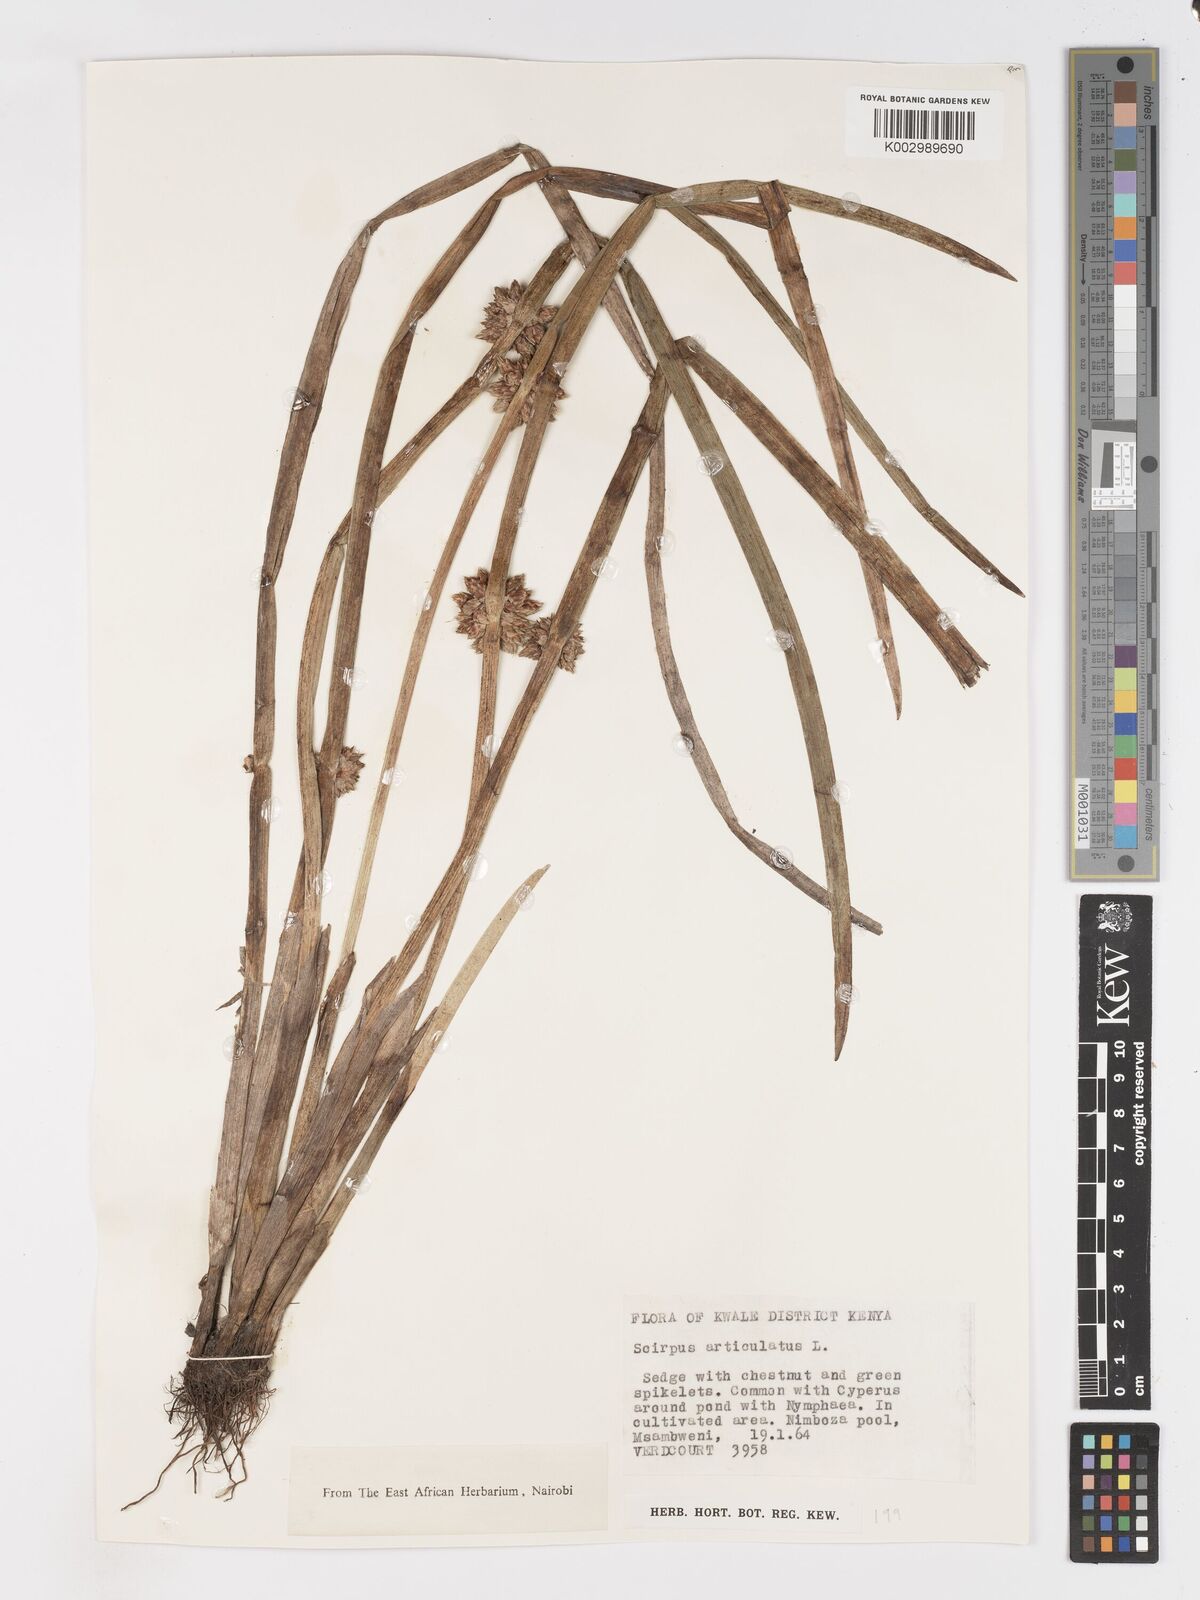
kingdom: Plantae
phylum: Tracheophyta
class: Liliopsida
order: Poales
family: Cyperaceae
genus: Schoenoplectiella
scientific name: Schoenoplectiella articulata
